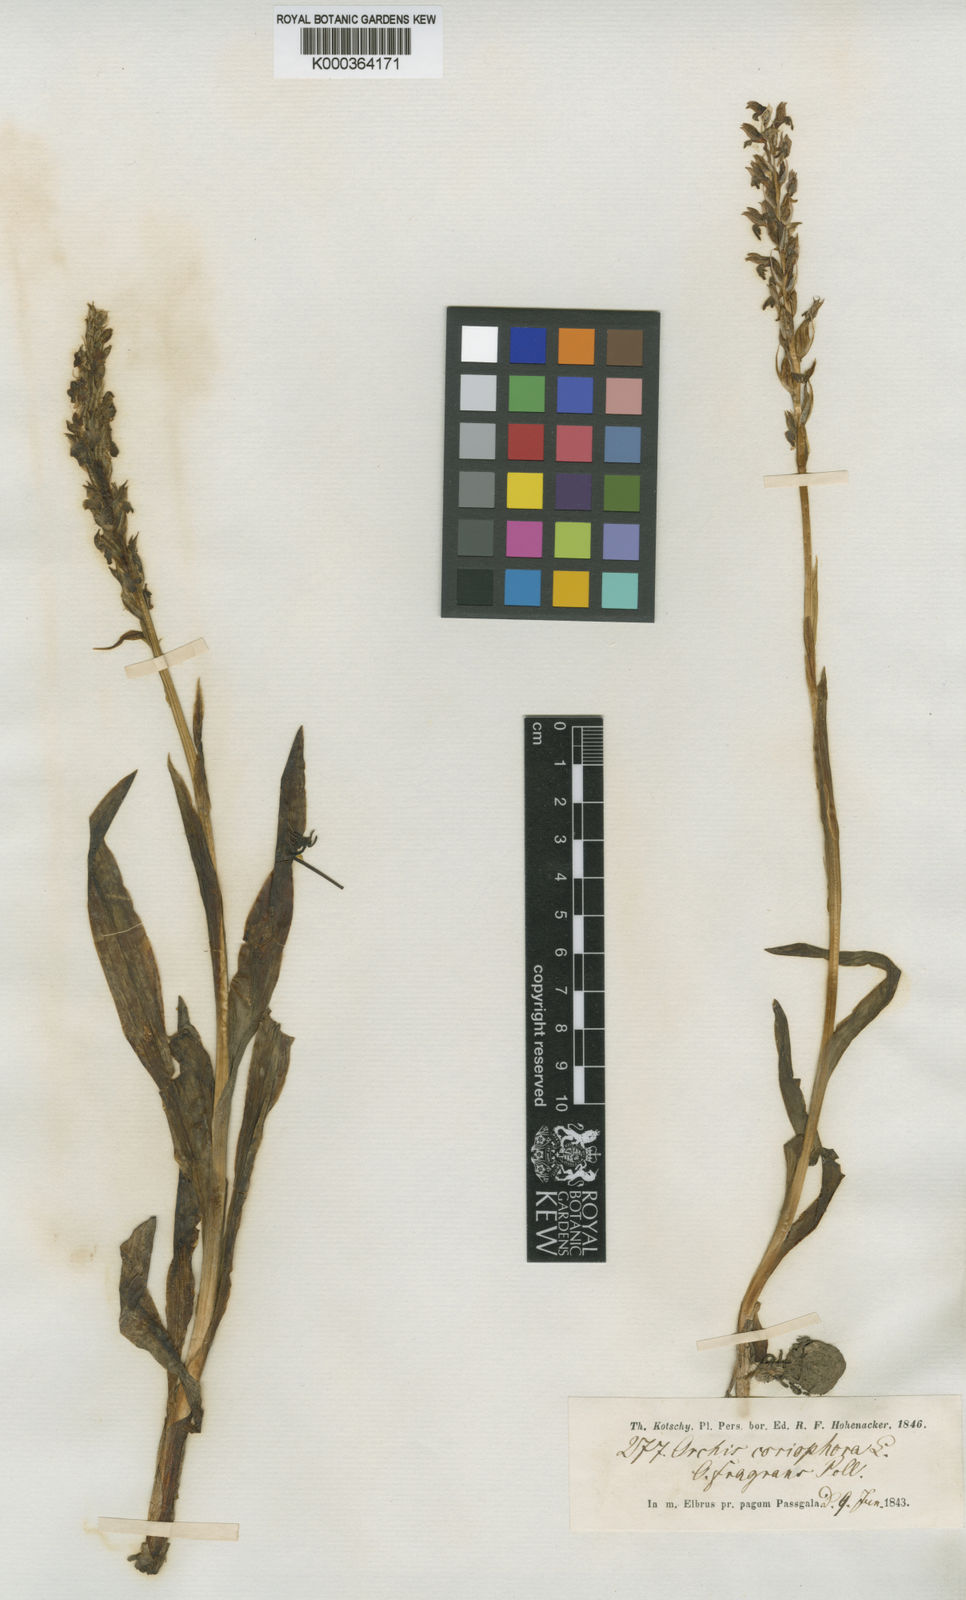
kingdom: Plantae
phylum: Tracheophyta
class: Liliopsida
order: Asparagales
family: Orchidaceae
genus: Anacamptis
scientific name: Anacamptis coriophora
